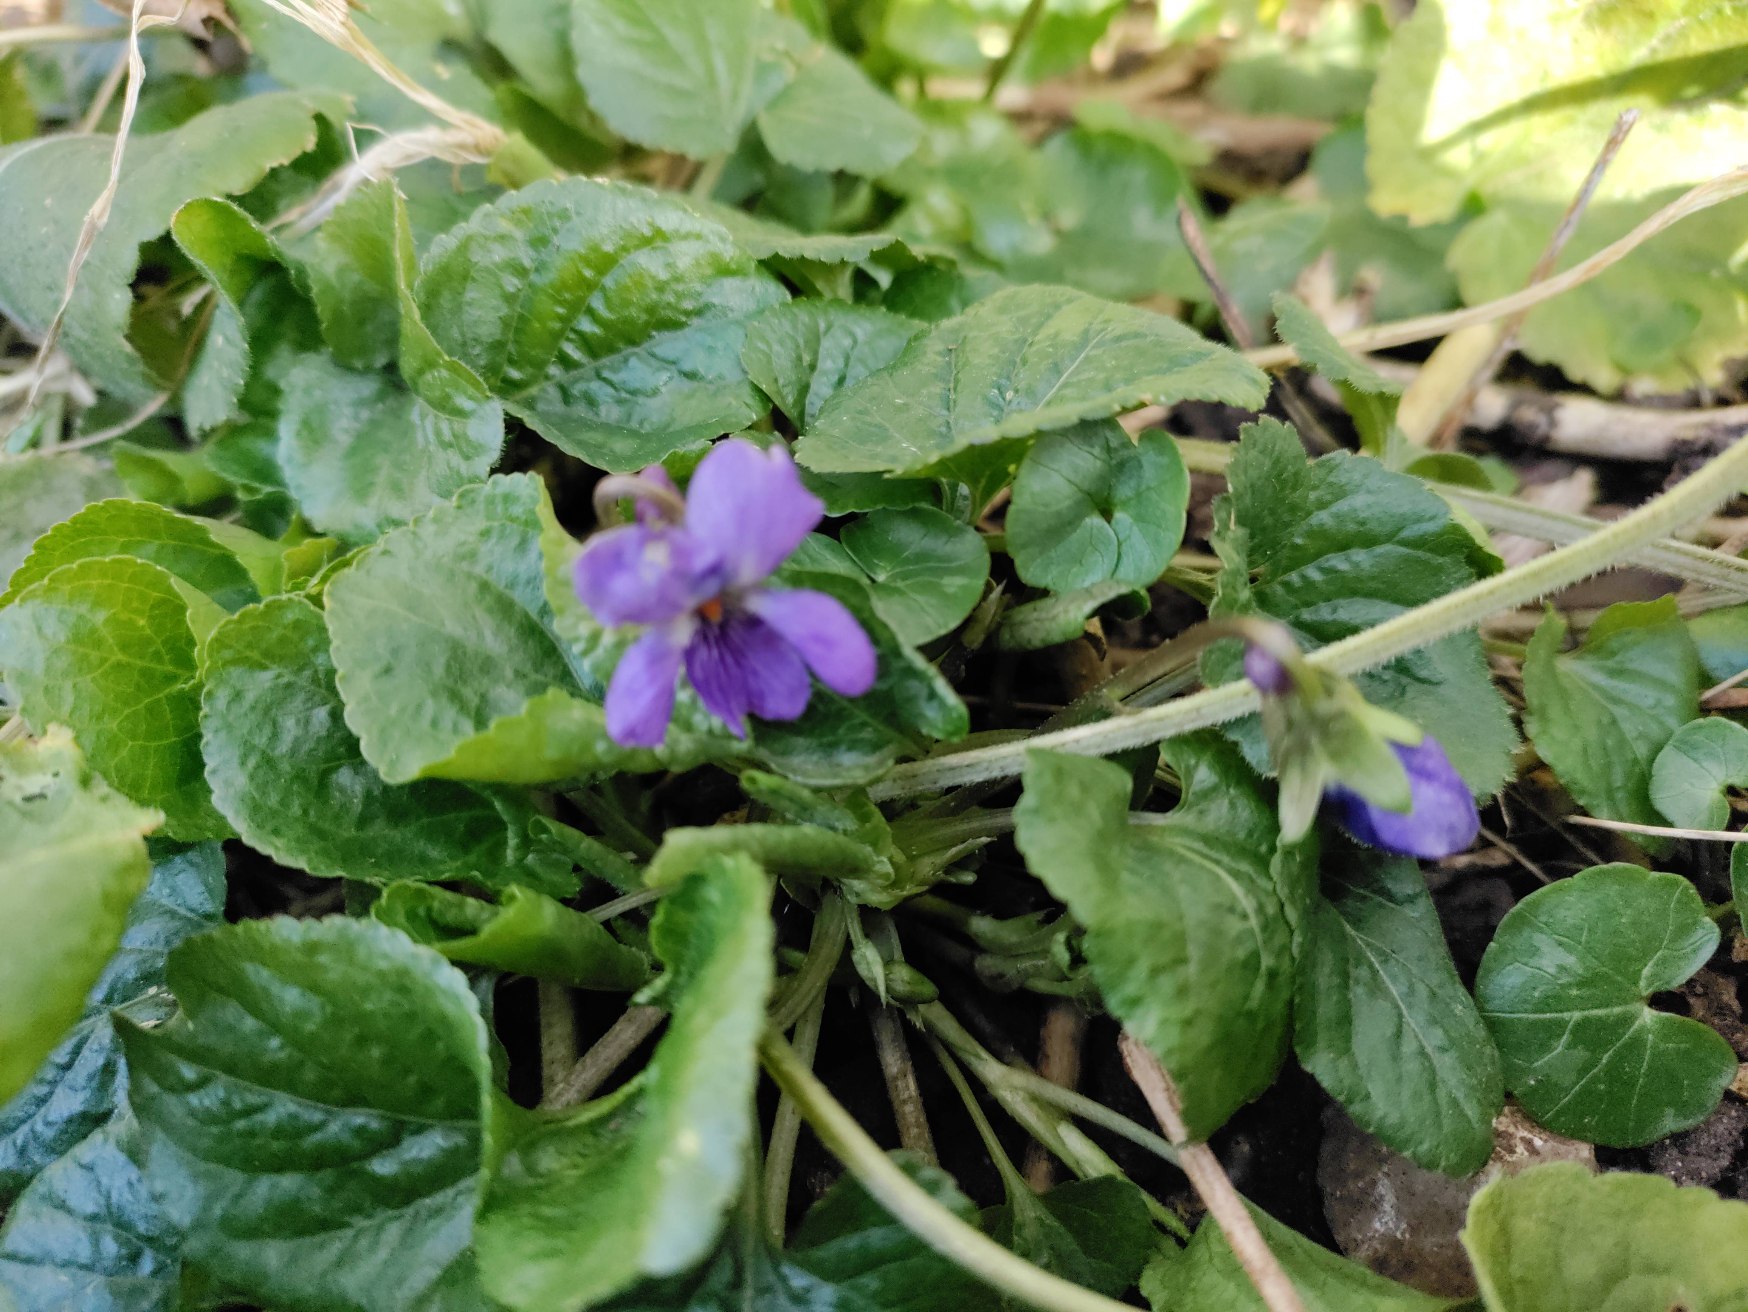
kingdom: Plantae
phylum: Tracheophyta
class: Magnoliopsida
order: Malpighiales
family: Violaceae
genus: Viola
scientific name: Viola odorata
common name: Marts-viol
